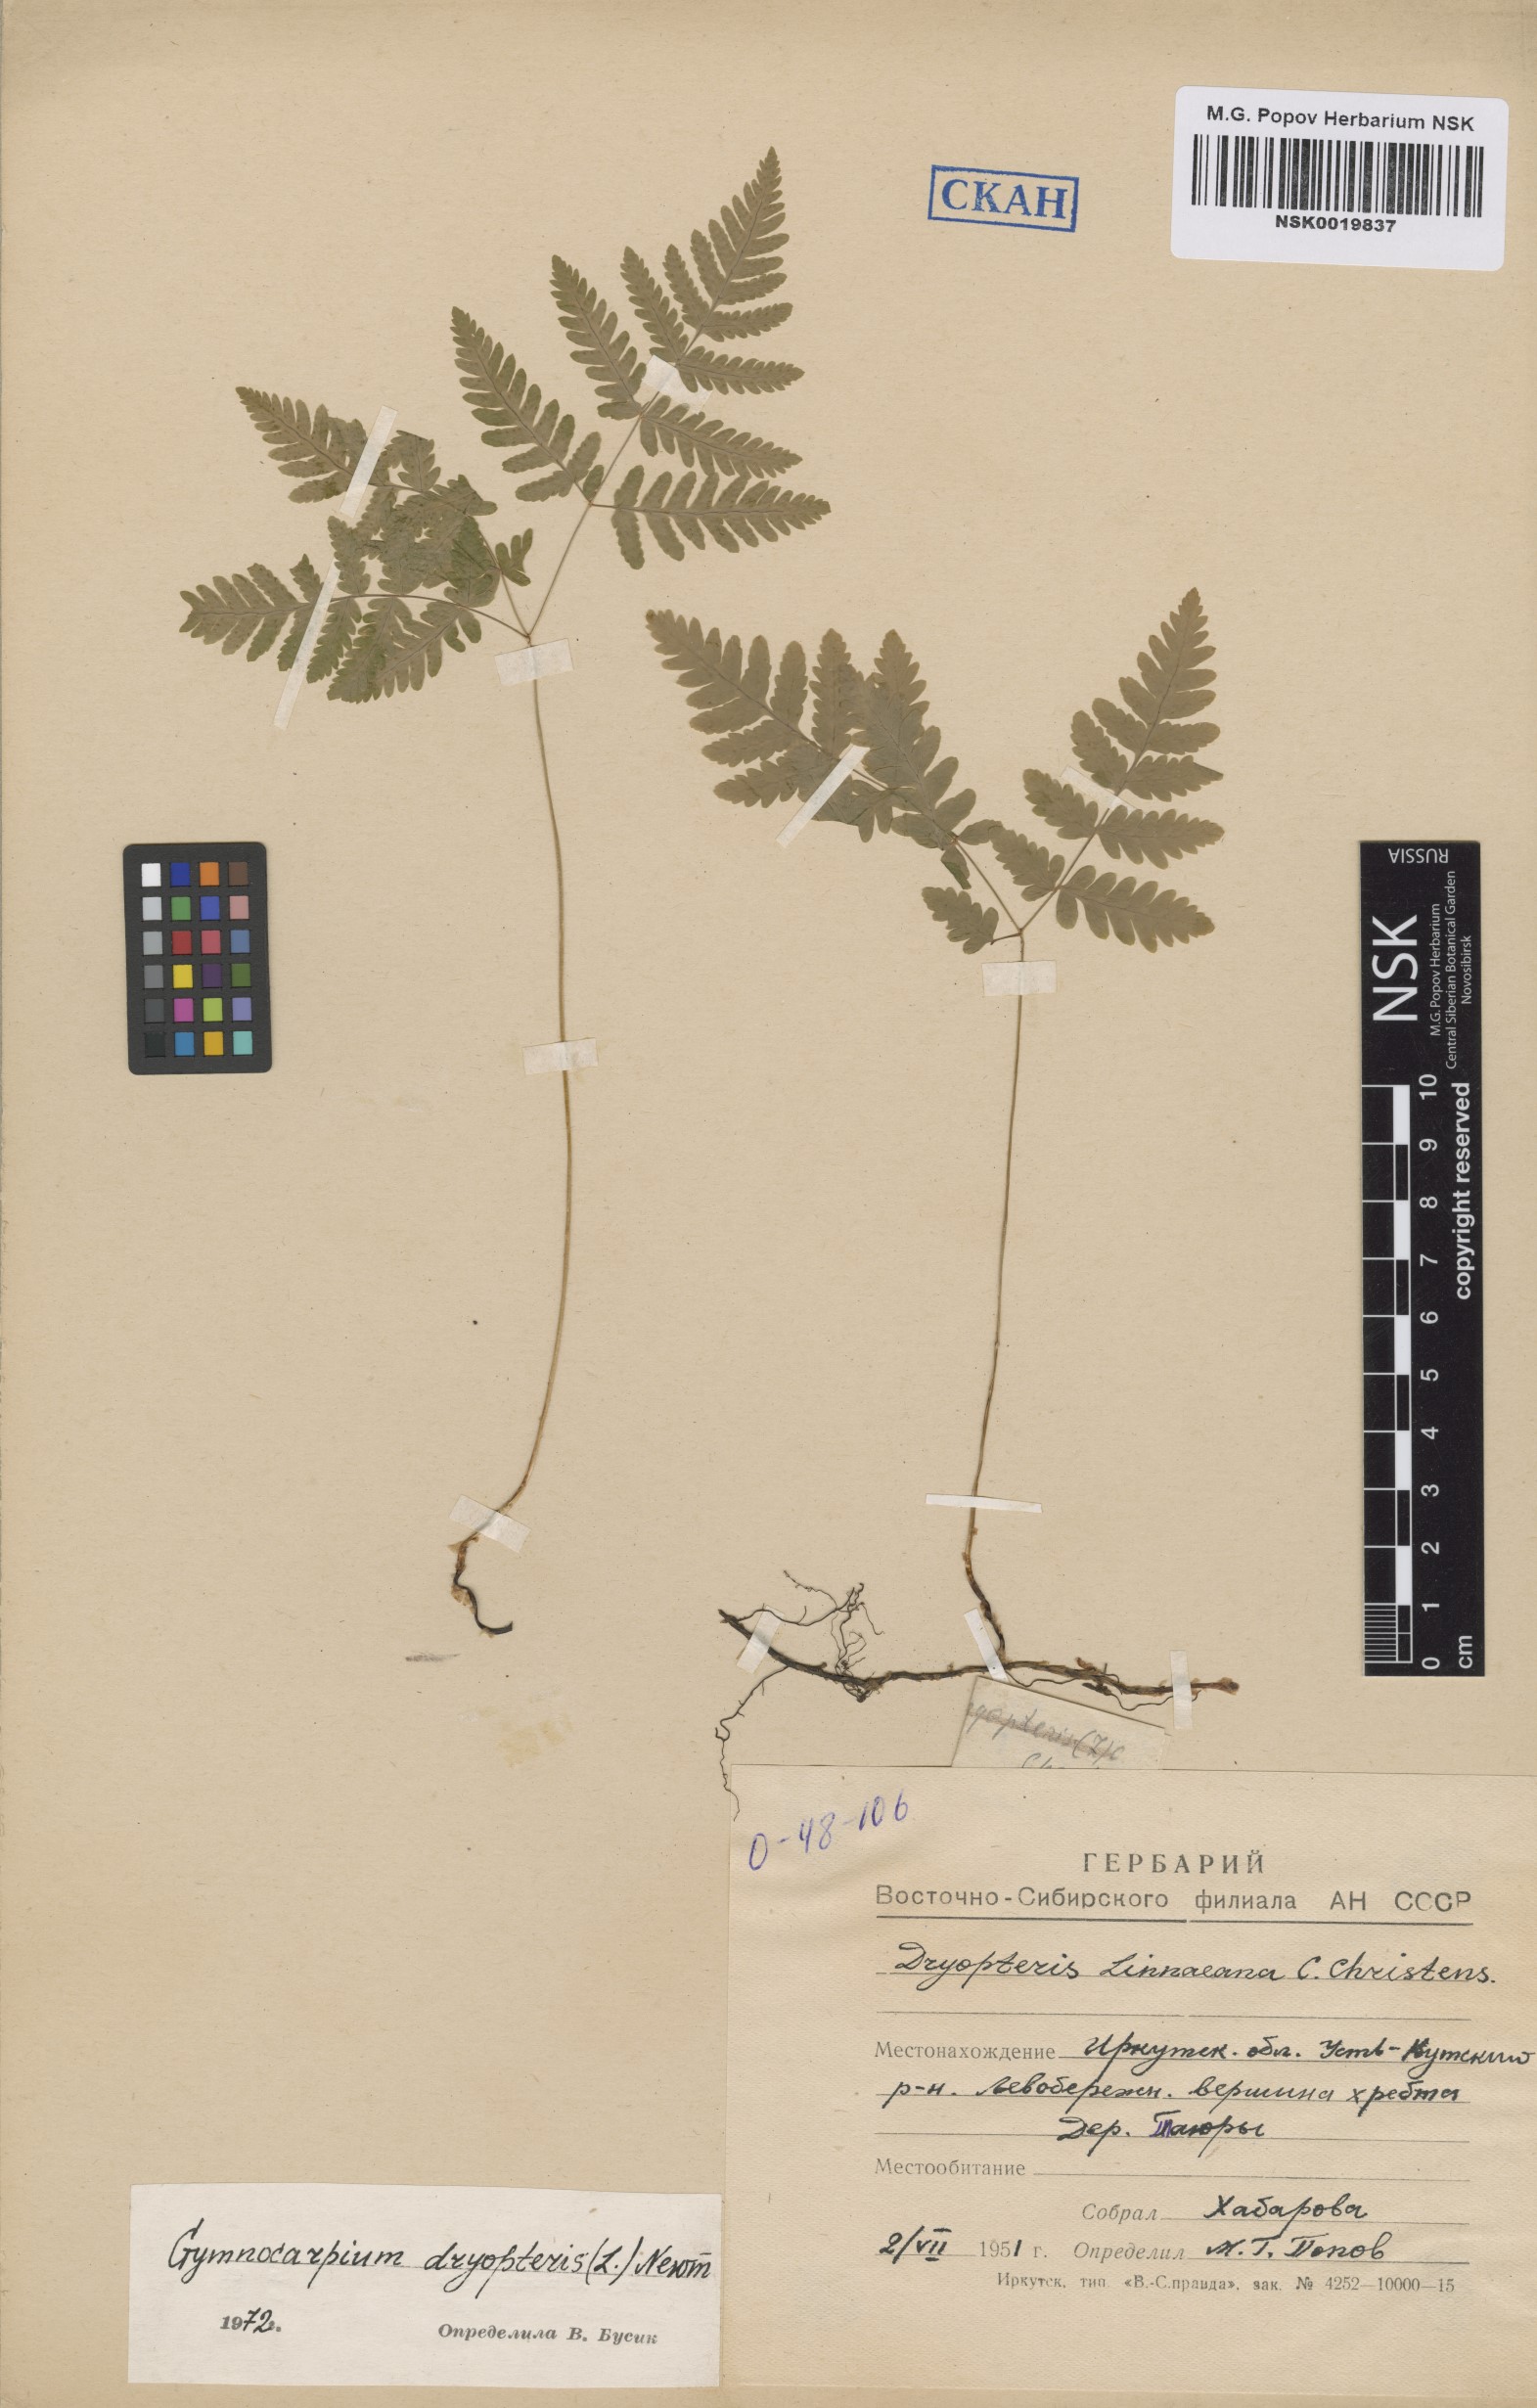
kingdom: Plantae
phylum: Tracheophyta
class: Polypodiopsida
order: Polypodiales
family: Cystopteridaceae
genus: Gymnocarpium
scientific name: Gymnocarpium dryopteris
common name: Oak fern
